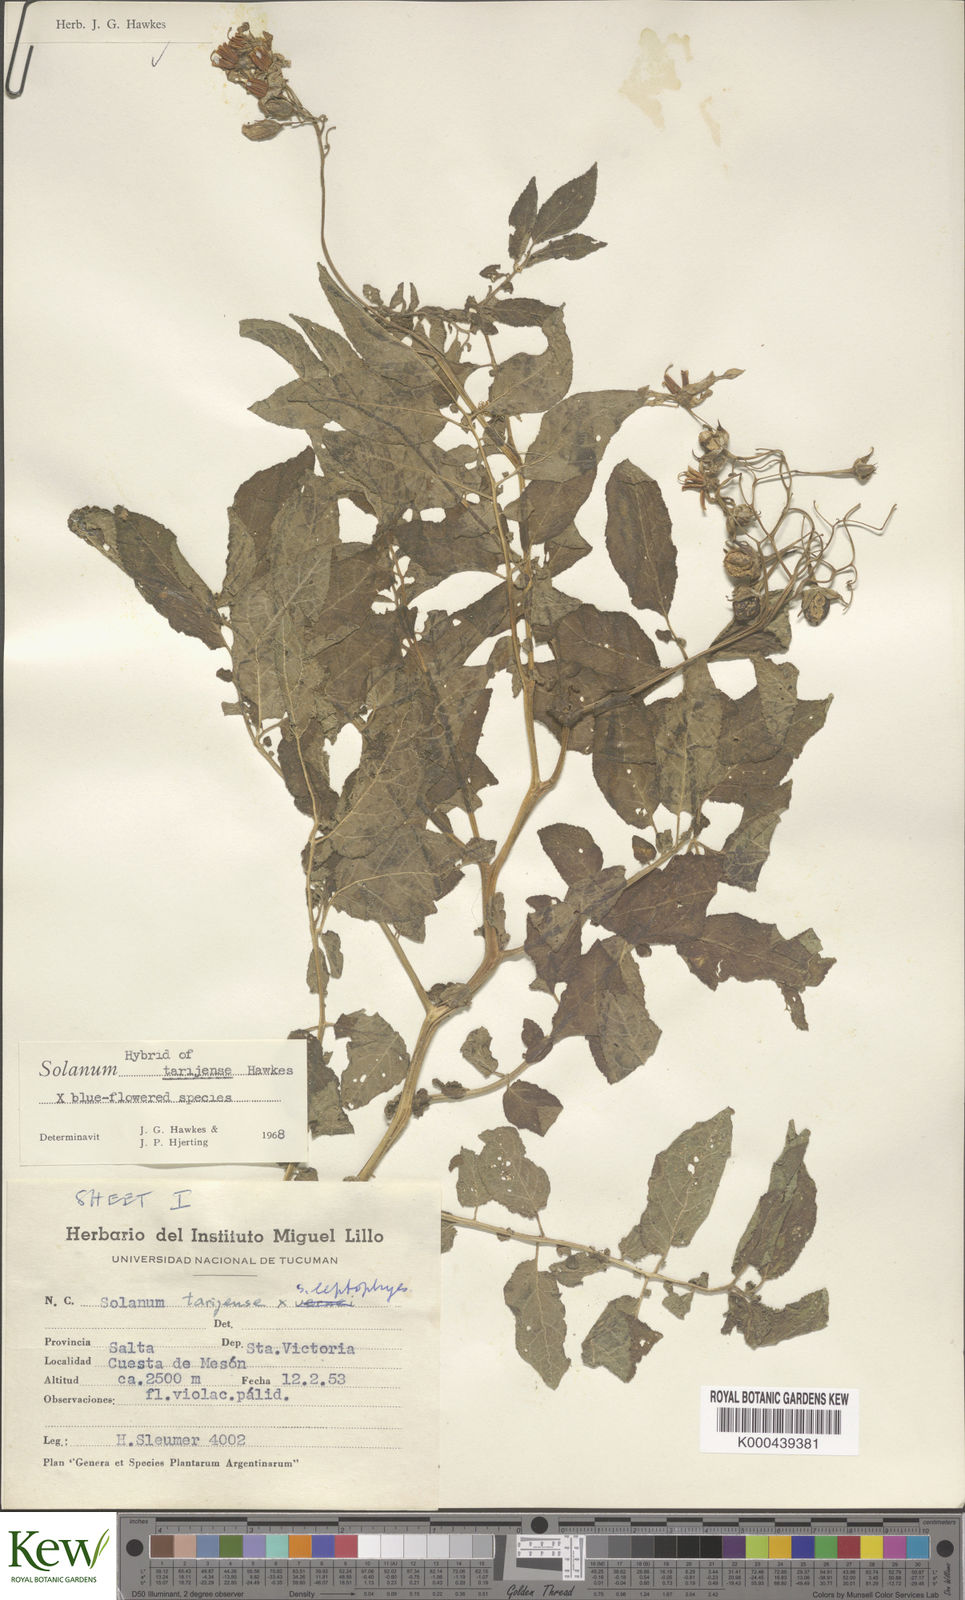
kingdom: Plantae
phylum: Tracheophyta
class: Magnoliopsida
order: Solanales
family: Solanaceae
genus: Solanum
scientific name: Solanum tarijense
